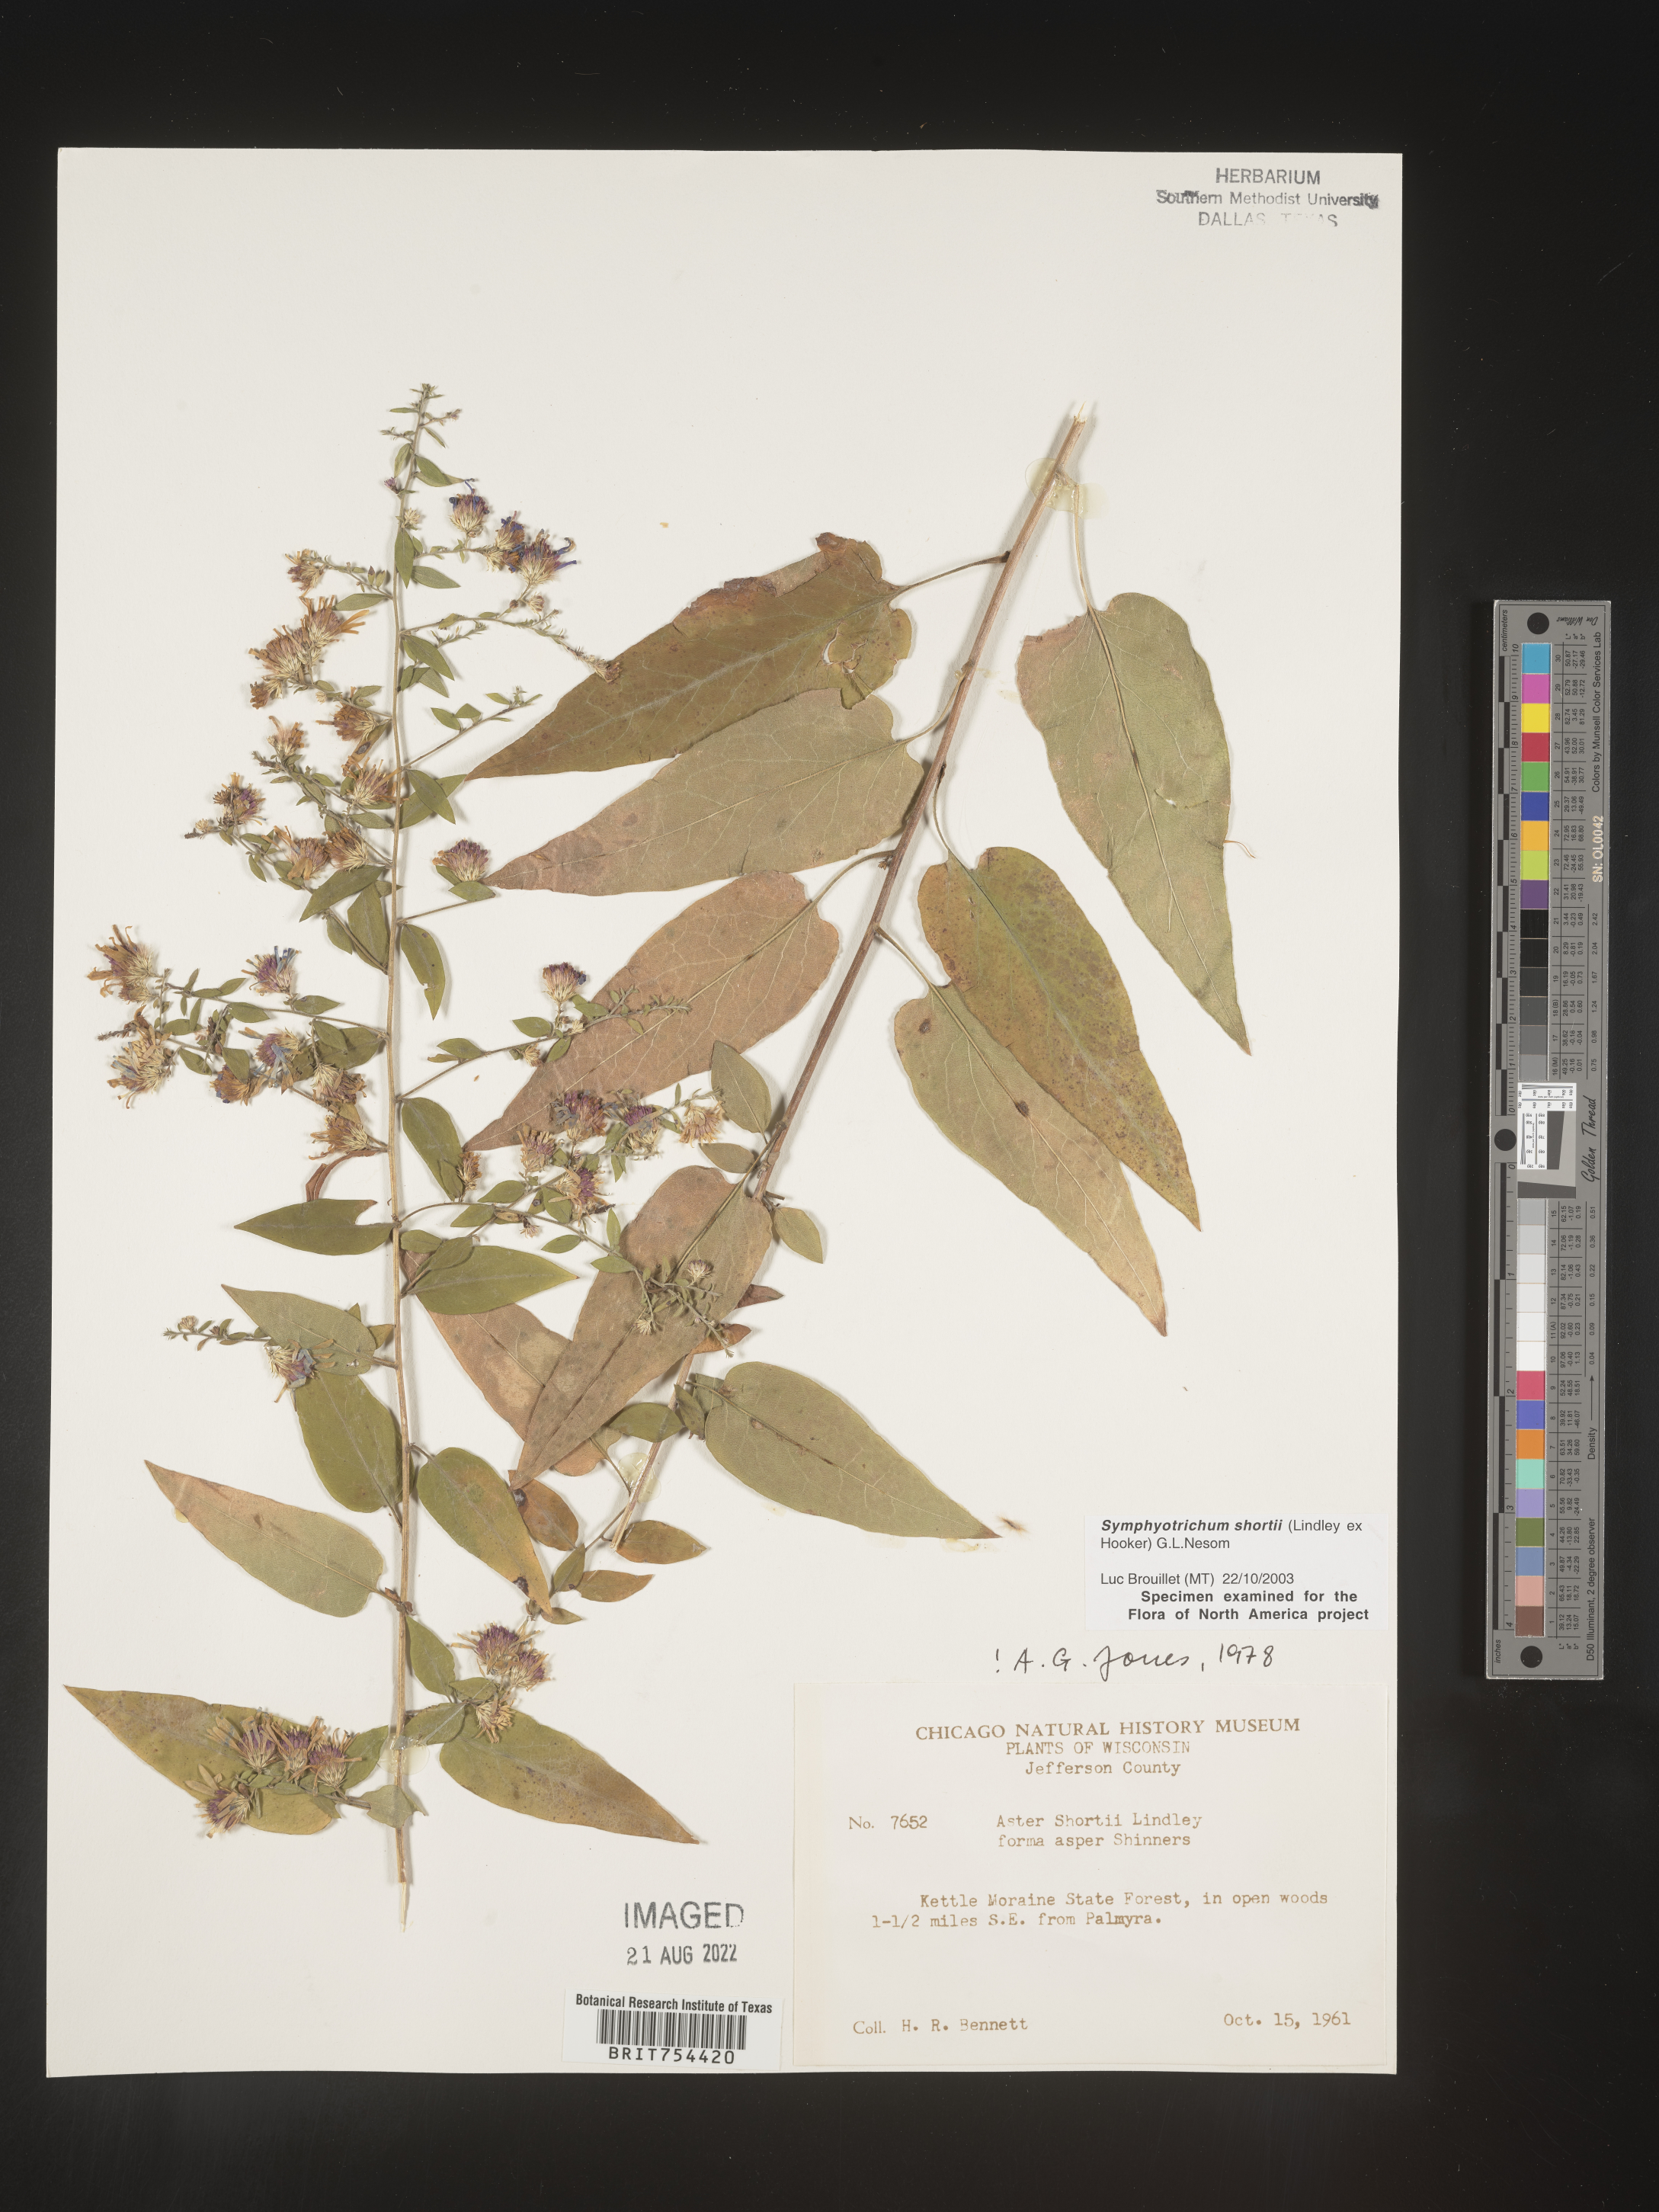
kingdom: Plantae
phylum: Tracheophyta
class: Magnoliopsida
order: Asterales
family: Asteraceae
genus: Symphyotrichum
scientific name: Symphyotrichum shortii
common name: Short's aster
